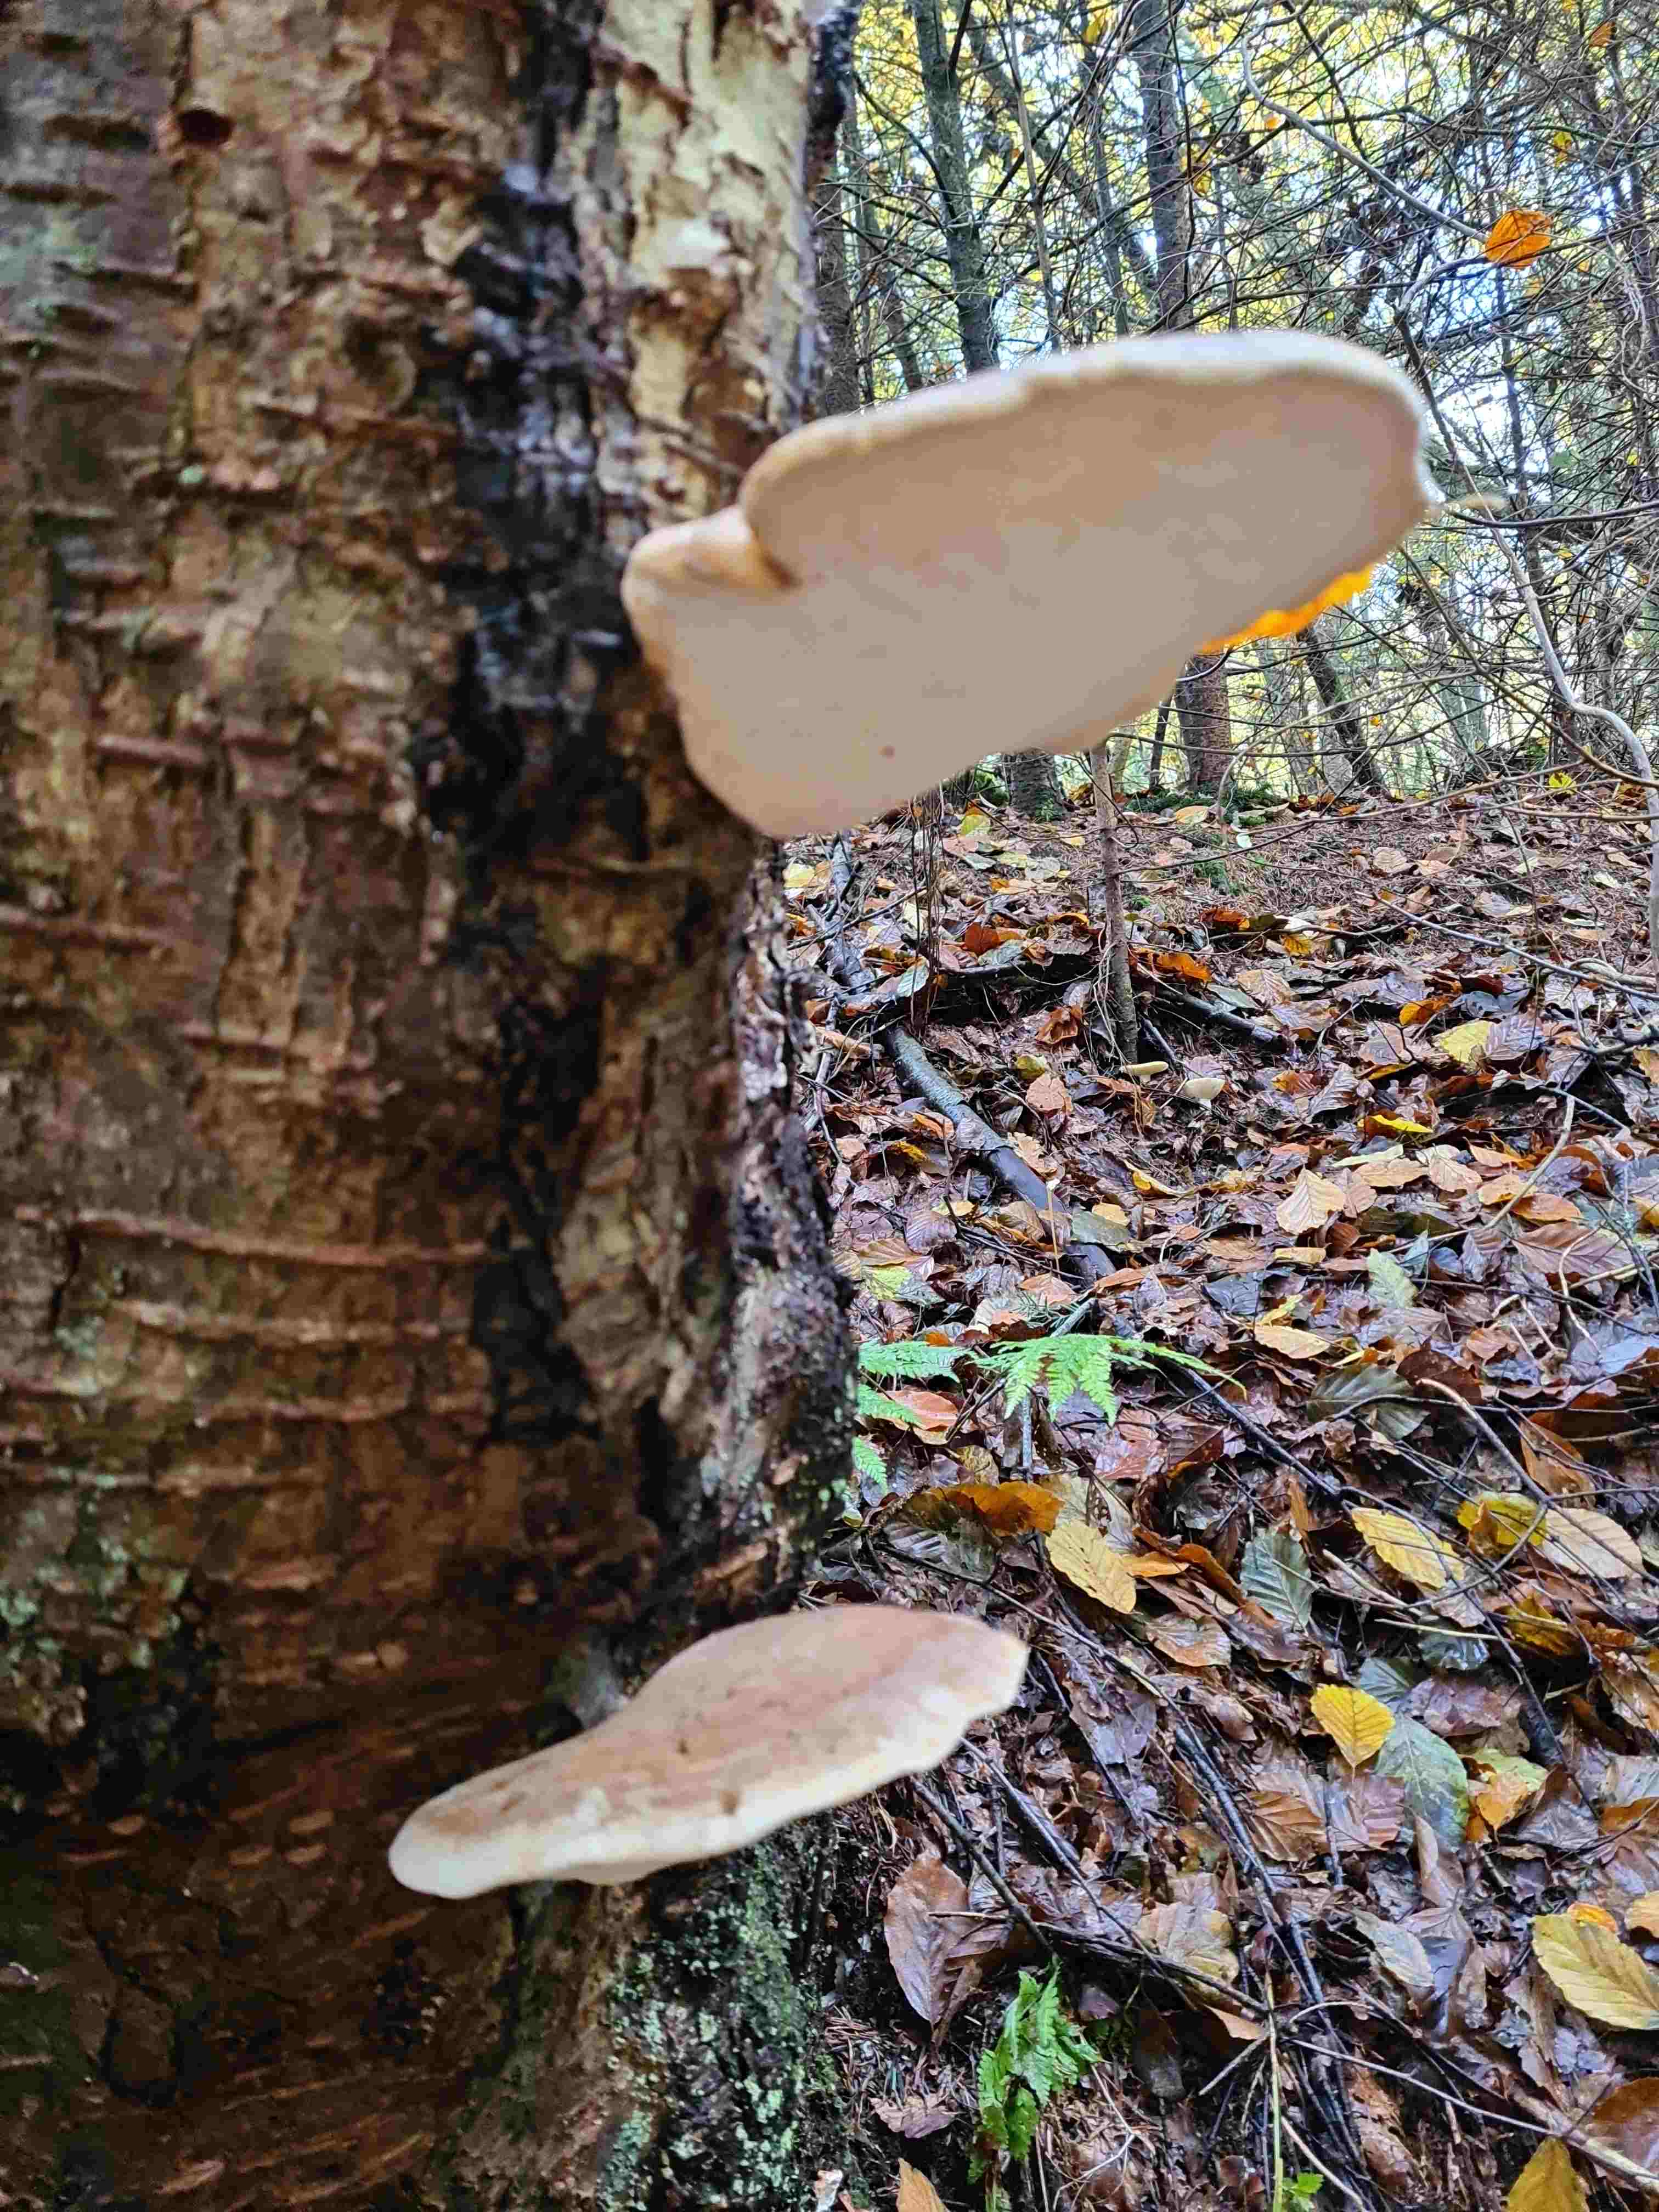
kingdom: Fungi
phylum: Basidiomycota
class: Agaricomycetes
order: Polyporales
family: Fomitopsidaceae
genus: Fomitopsis
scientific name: Fomitopsis betulina
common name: birkeporesvamp
